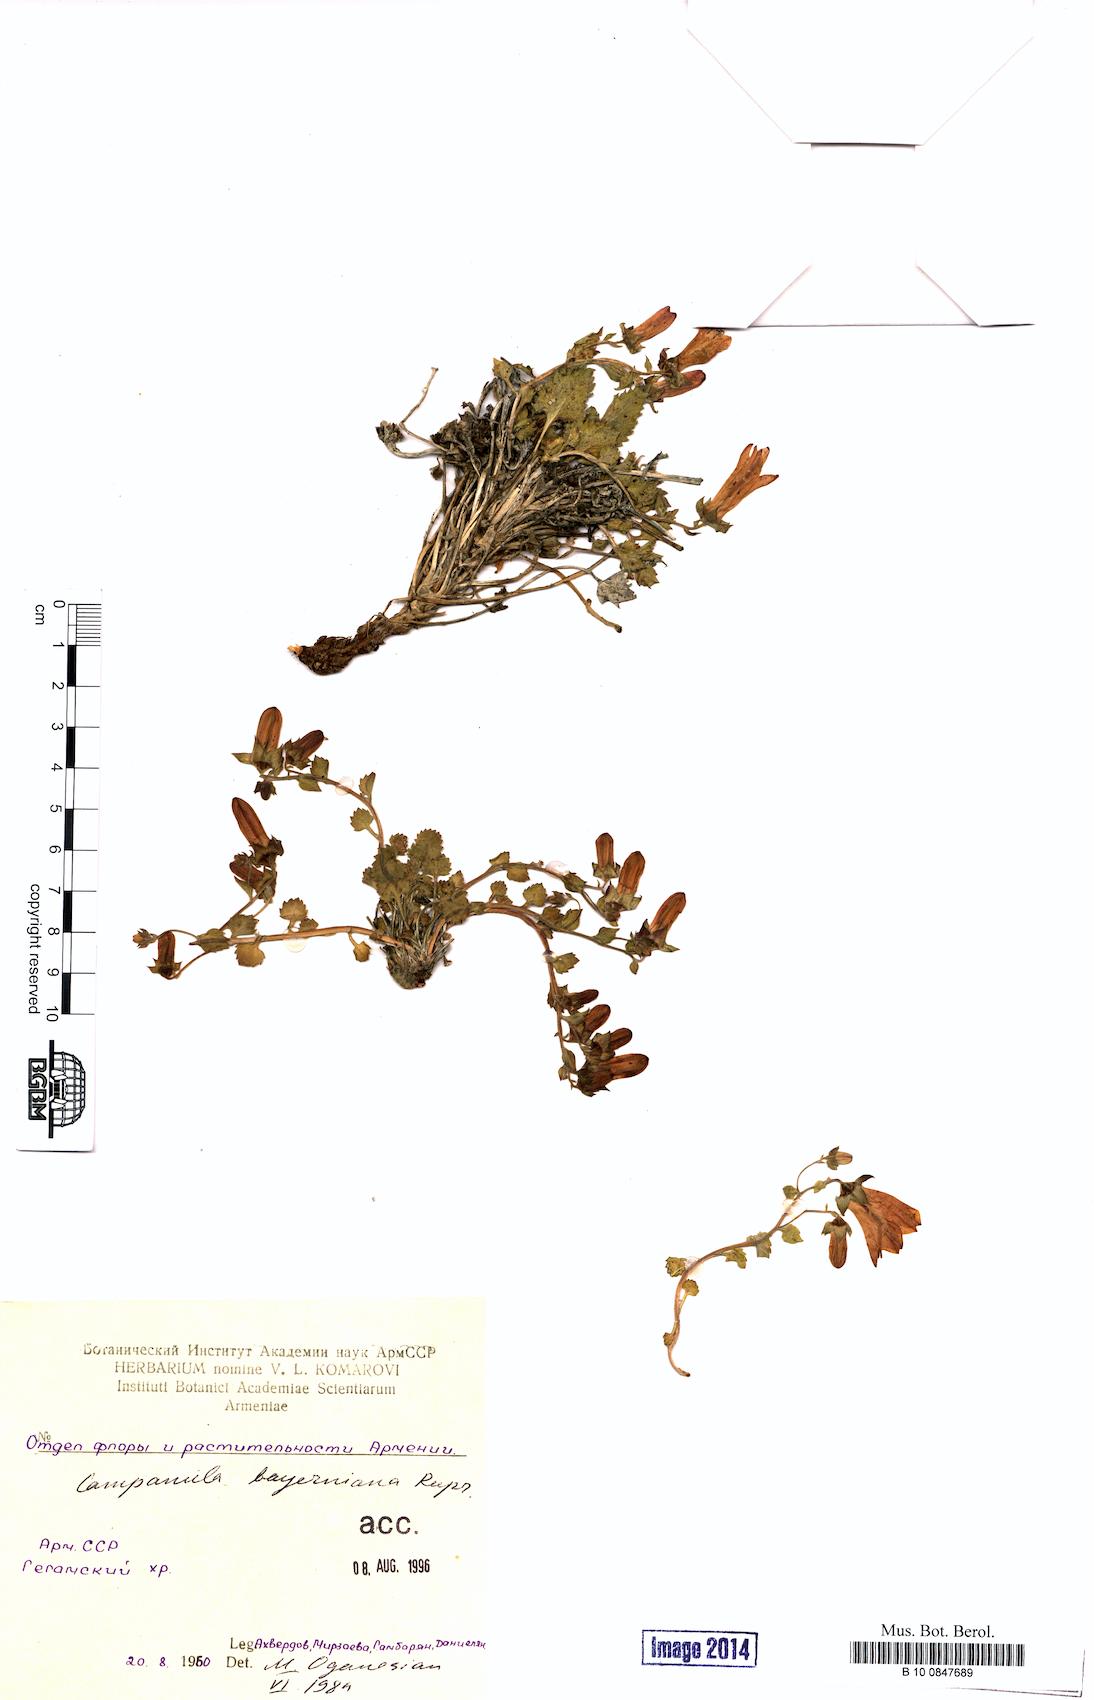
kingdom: Plantae
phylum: Tracheophyta
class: Magnoliopsida
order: Asterales
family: Campanulaceae
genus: Campanula
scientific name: Campanula bayerniana
